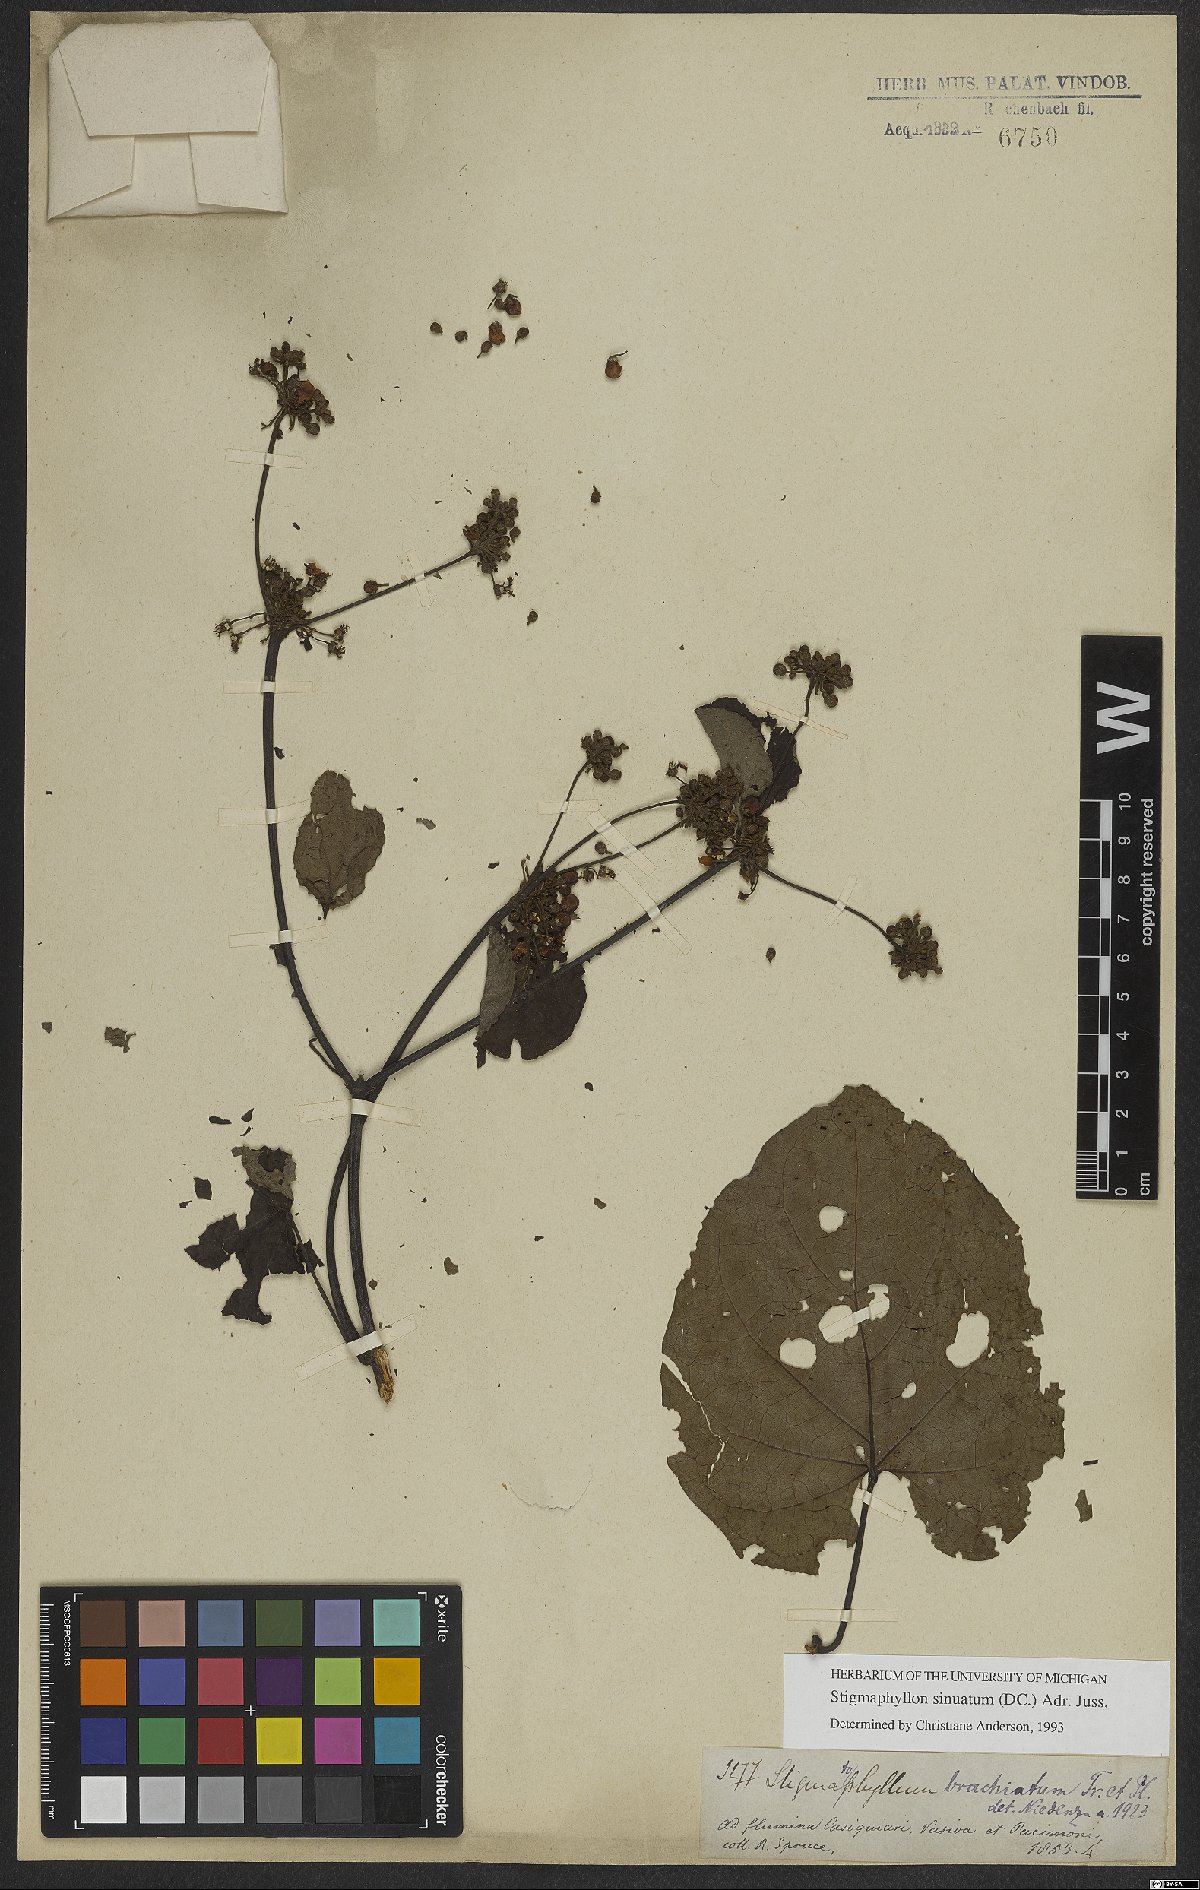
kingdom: Plantae
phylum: Tracheophyta
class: Magnoliopsida
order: Malpighiales
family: Malpighiaceae
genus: Stigmaphyllon
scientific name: Stigmaphyllon sinuatum
